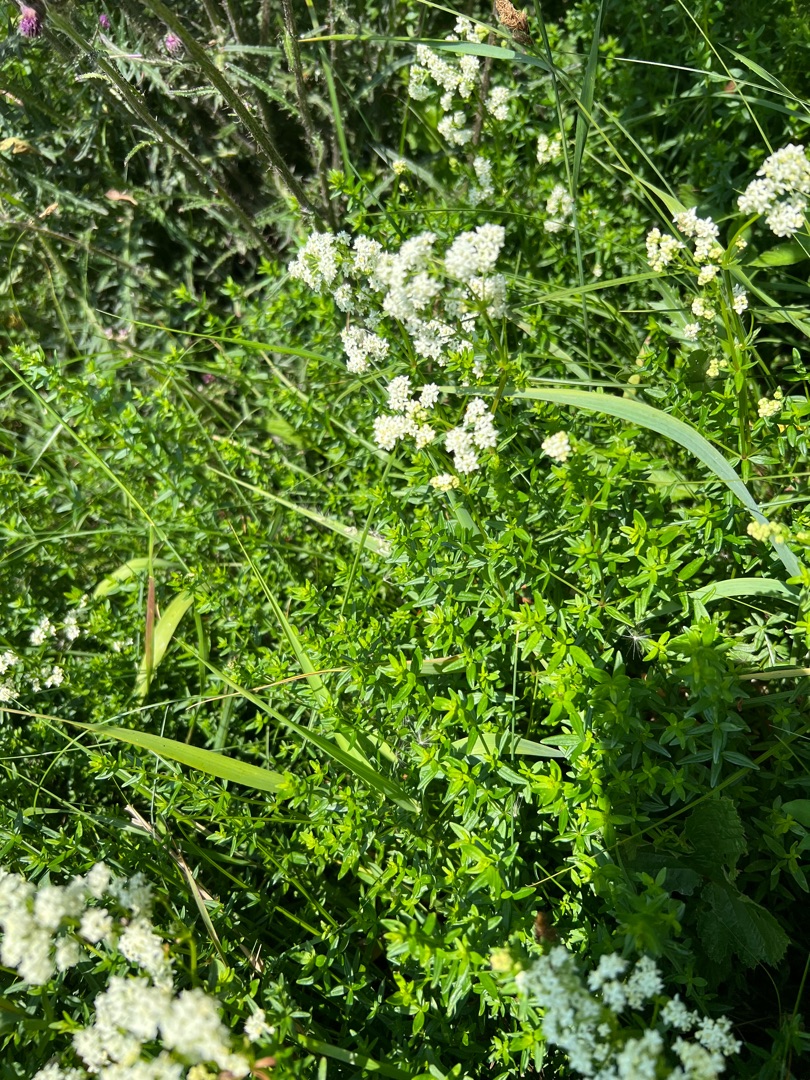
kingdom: Plantae
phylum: Tracheophyta
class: Magnoliopsida
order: Gentianales
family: Rubiaceae
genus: Galium
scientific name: Galium boreale
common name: Trenervet snerre
